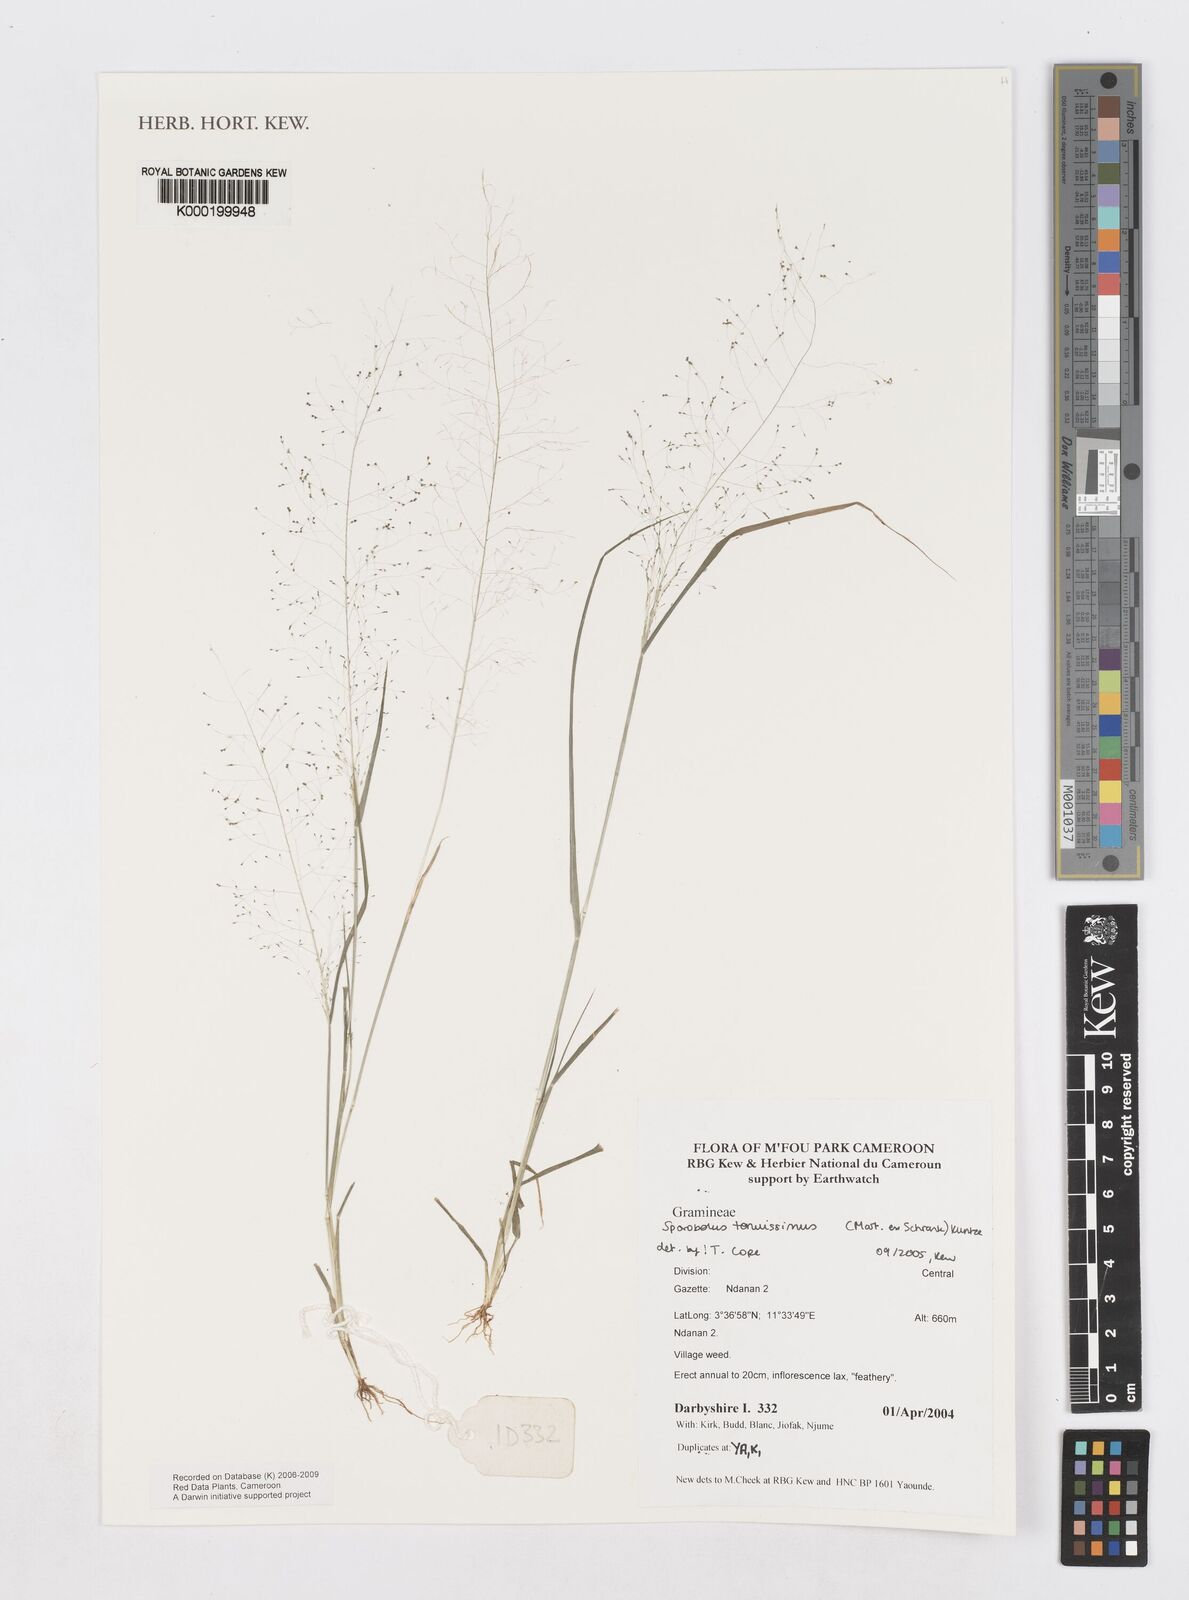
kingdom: Plantae
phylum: Tracheophyta
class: Liliopsida
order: Poales
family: Poaceae
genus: Sporobolus
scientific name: Sporobolus tenuissimus
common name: Tropical dropseed
